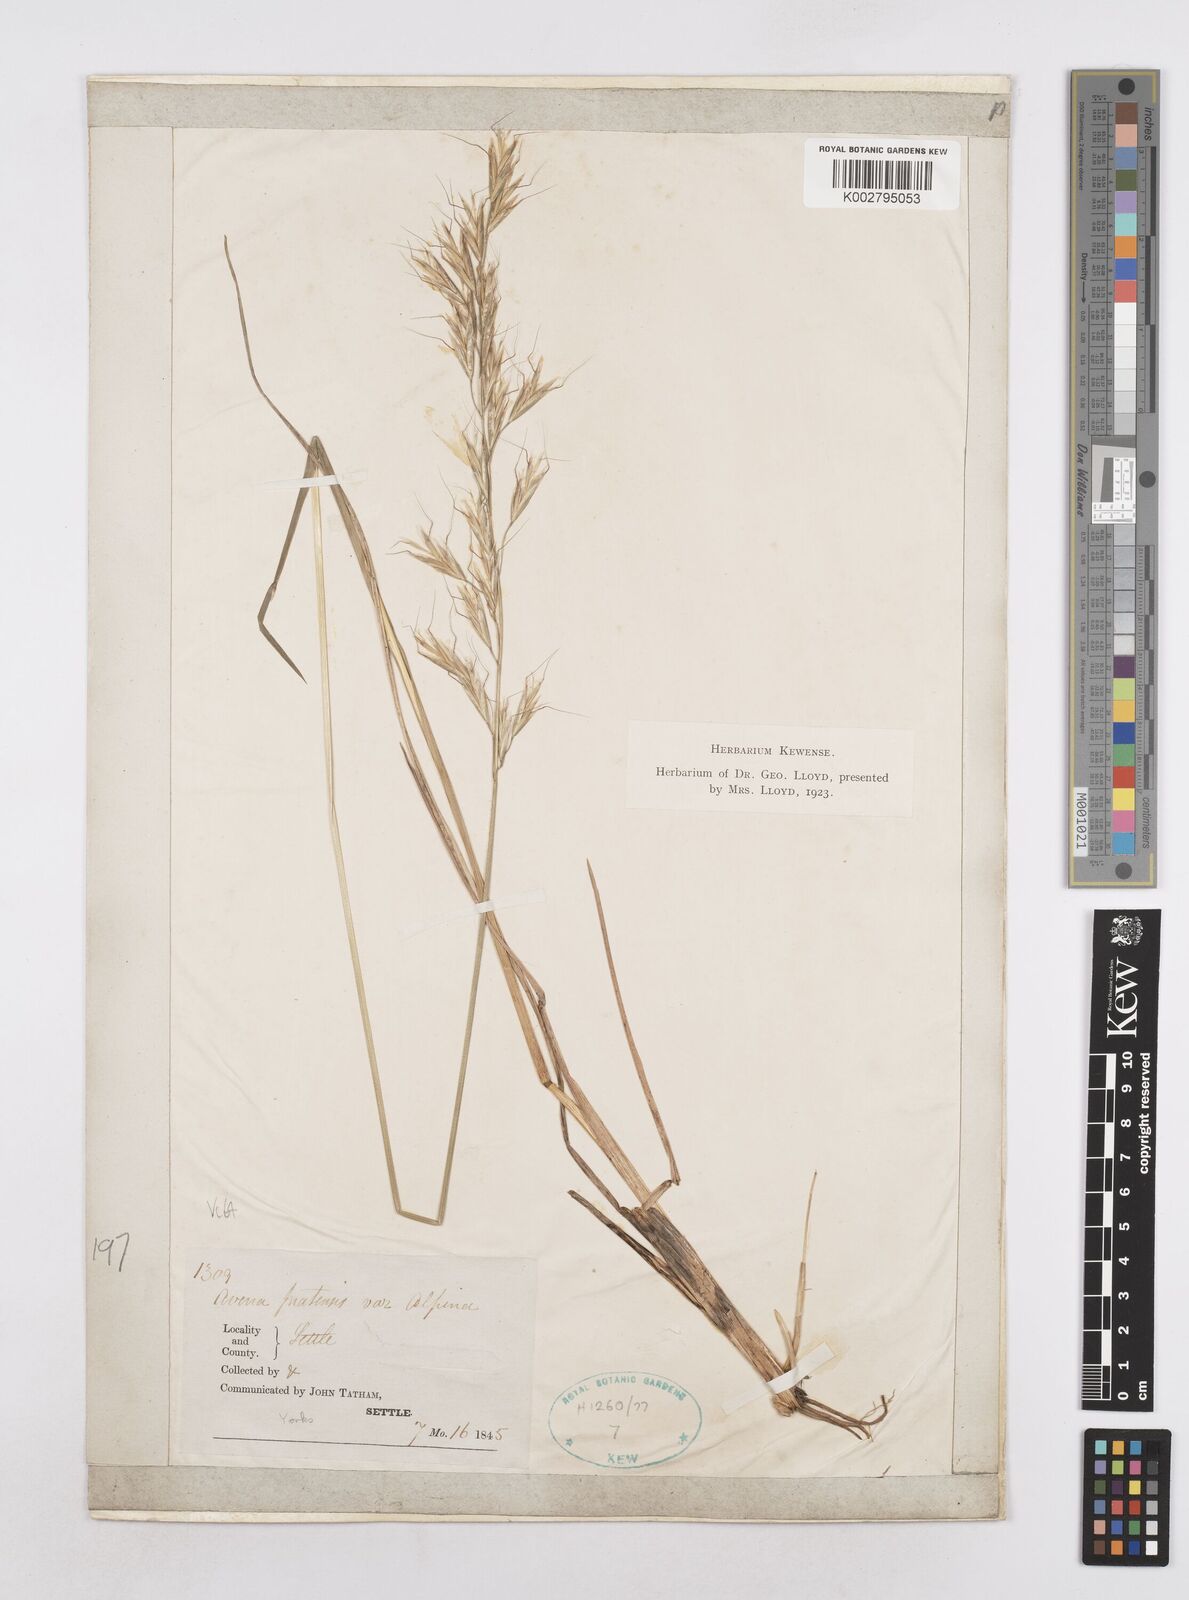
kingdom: Plantae
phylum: Tracheophyta
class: Liliopsida
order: Poales
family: Poaceae
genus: Helictochloa
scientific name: Helictochloa pratensis
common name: Meadow oat grass
